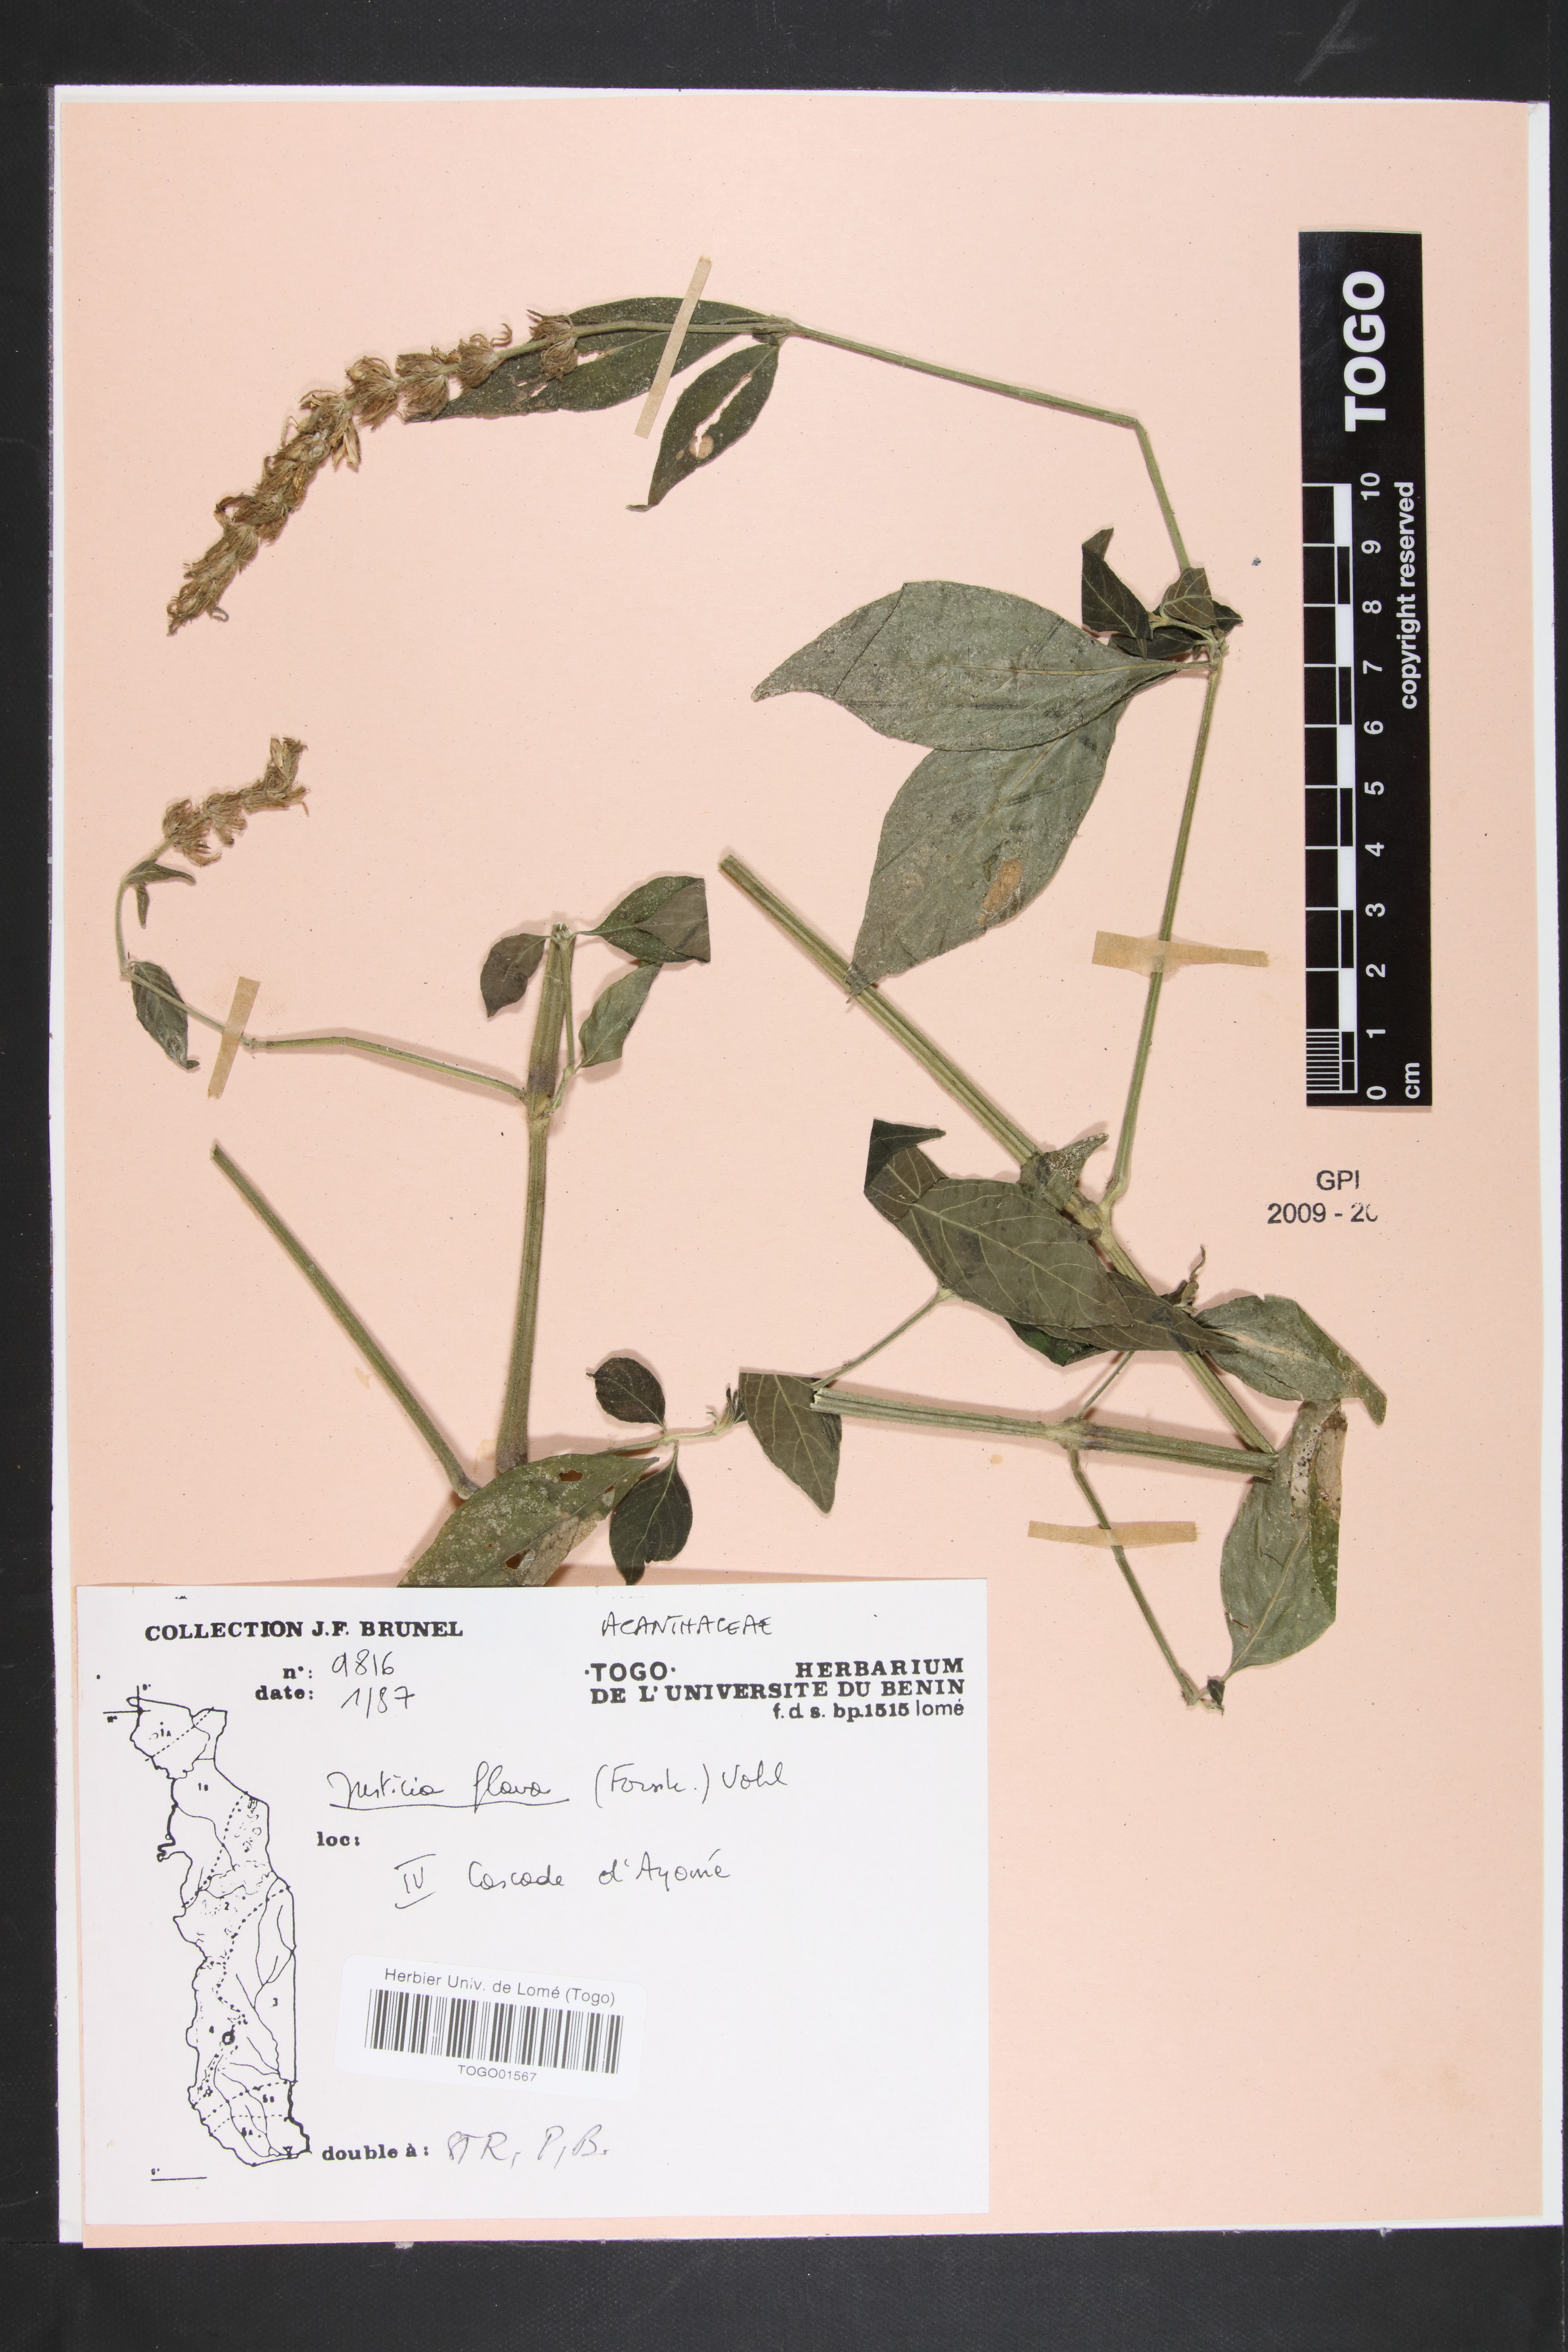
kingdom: Plantae
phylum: Tracheophyta
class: Magnoliopsida
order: Lamiales
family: Acanthaceae
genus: Justicia
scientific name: Justicia flava
